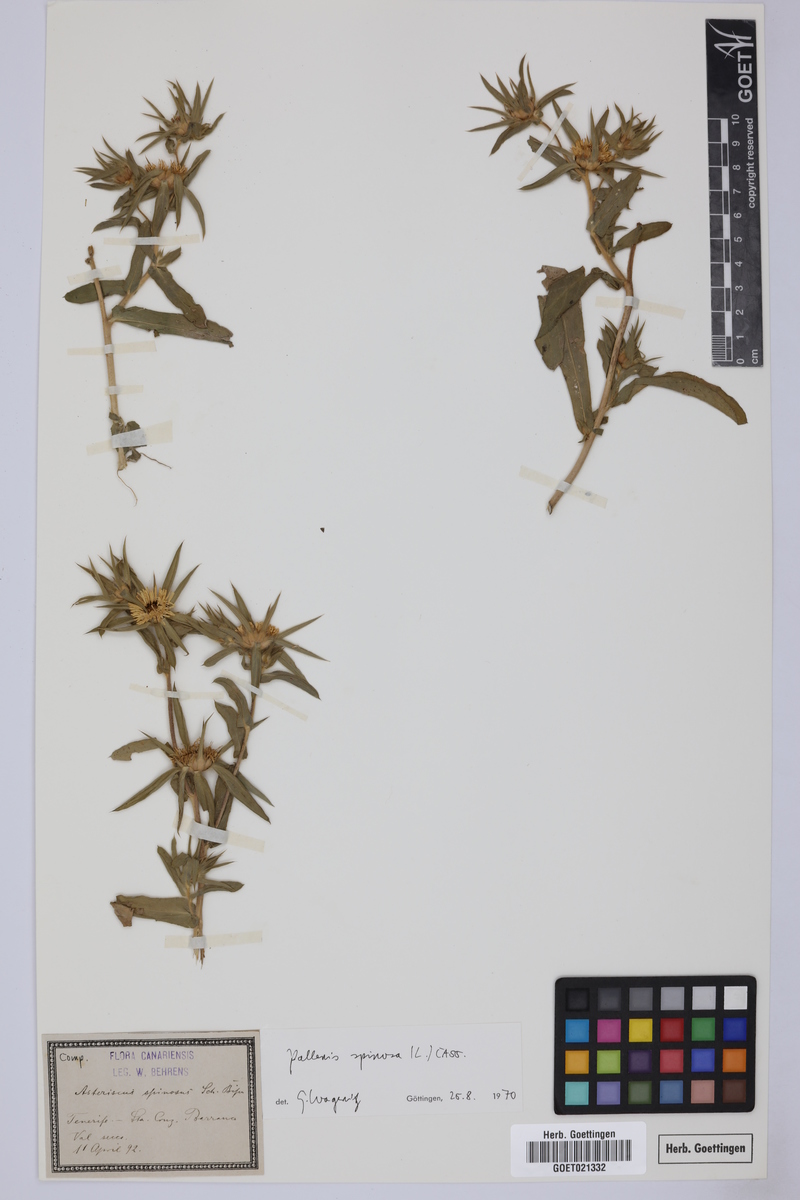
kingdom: Plantae
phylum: Tracheophyta
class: Magnoliopsida
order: Asterales
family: Asteraceae
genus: Pallenis
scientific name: Pallenis spinosa
